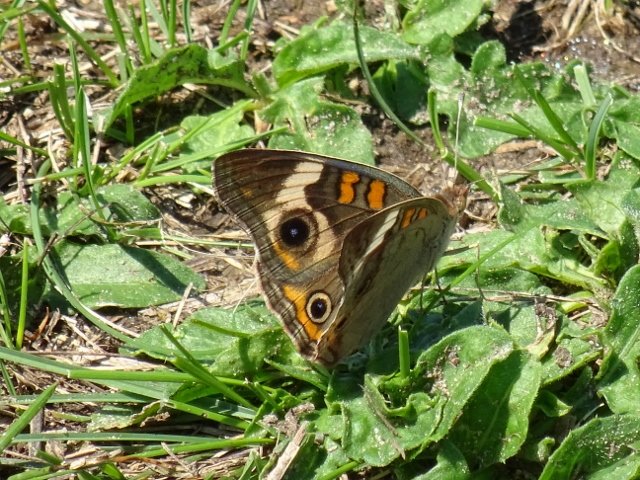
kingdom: Animalia
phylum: Arthropoda
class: Insecta
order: Lepidoptera
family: Nymphalidae
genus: Junonia
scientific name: Junonia coenia
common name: Common Buckeye
